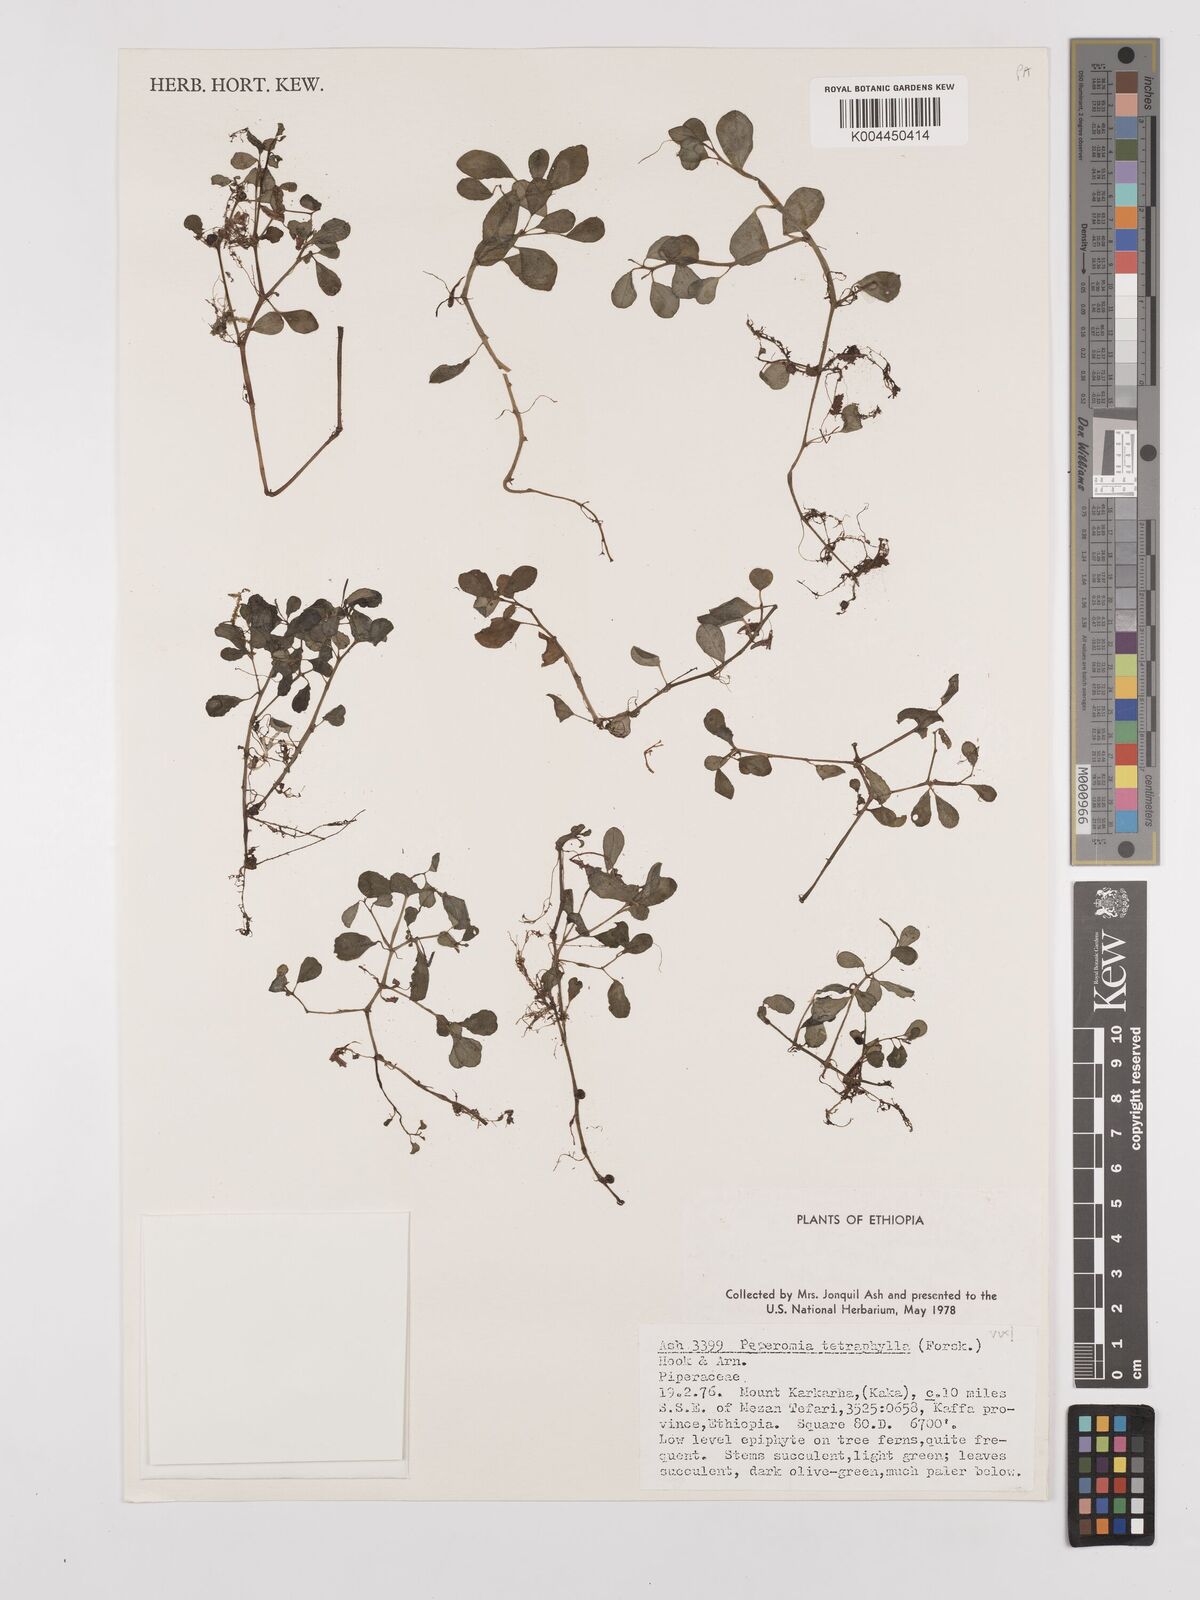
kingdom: Plantae
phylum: Tracheophyta
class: Magnoliopsida
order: Piperales
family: Piperaceae
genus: Peperomia
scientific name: Peperomia retusa
